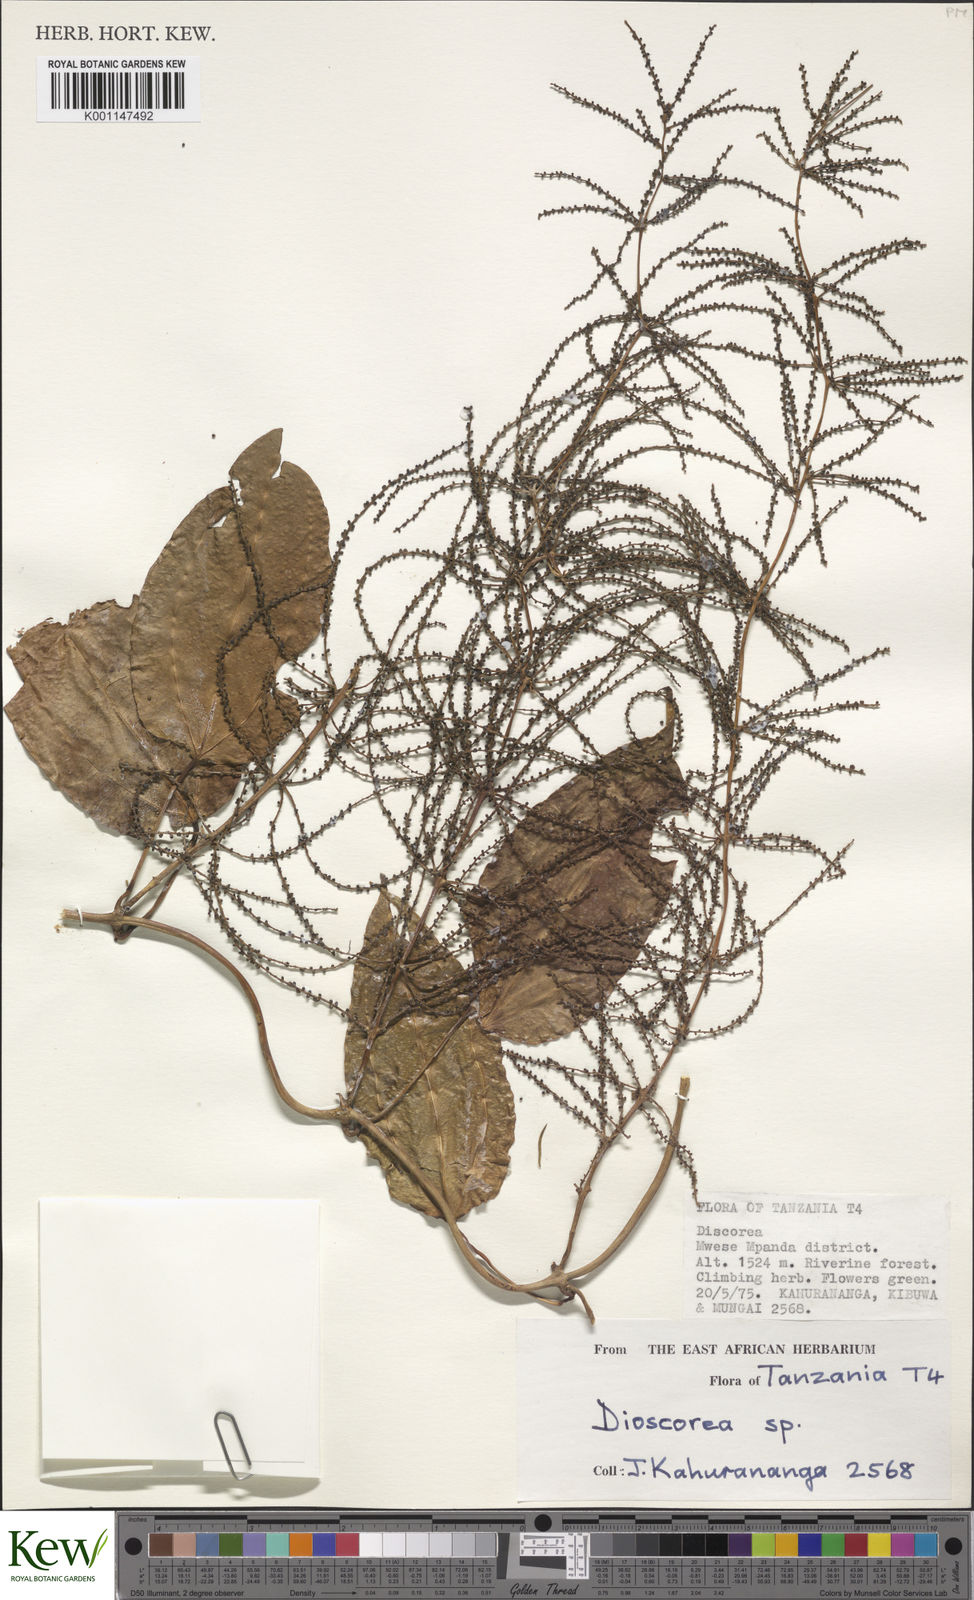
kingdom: Plantae
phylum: Tracheophyta
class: Liliopsida
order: Dioscoreales
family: Dioscoreaceae
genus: Dioscorea
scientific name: Dioscorea
